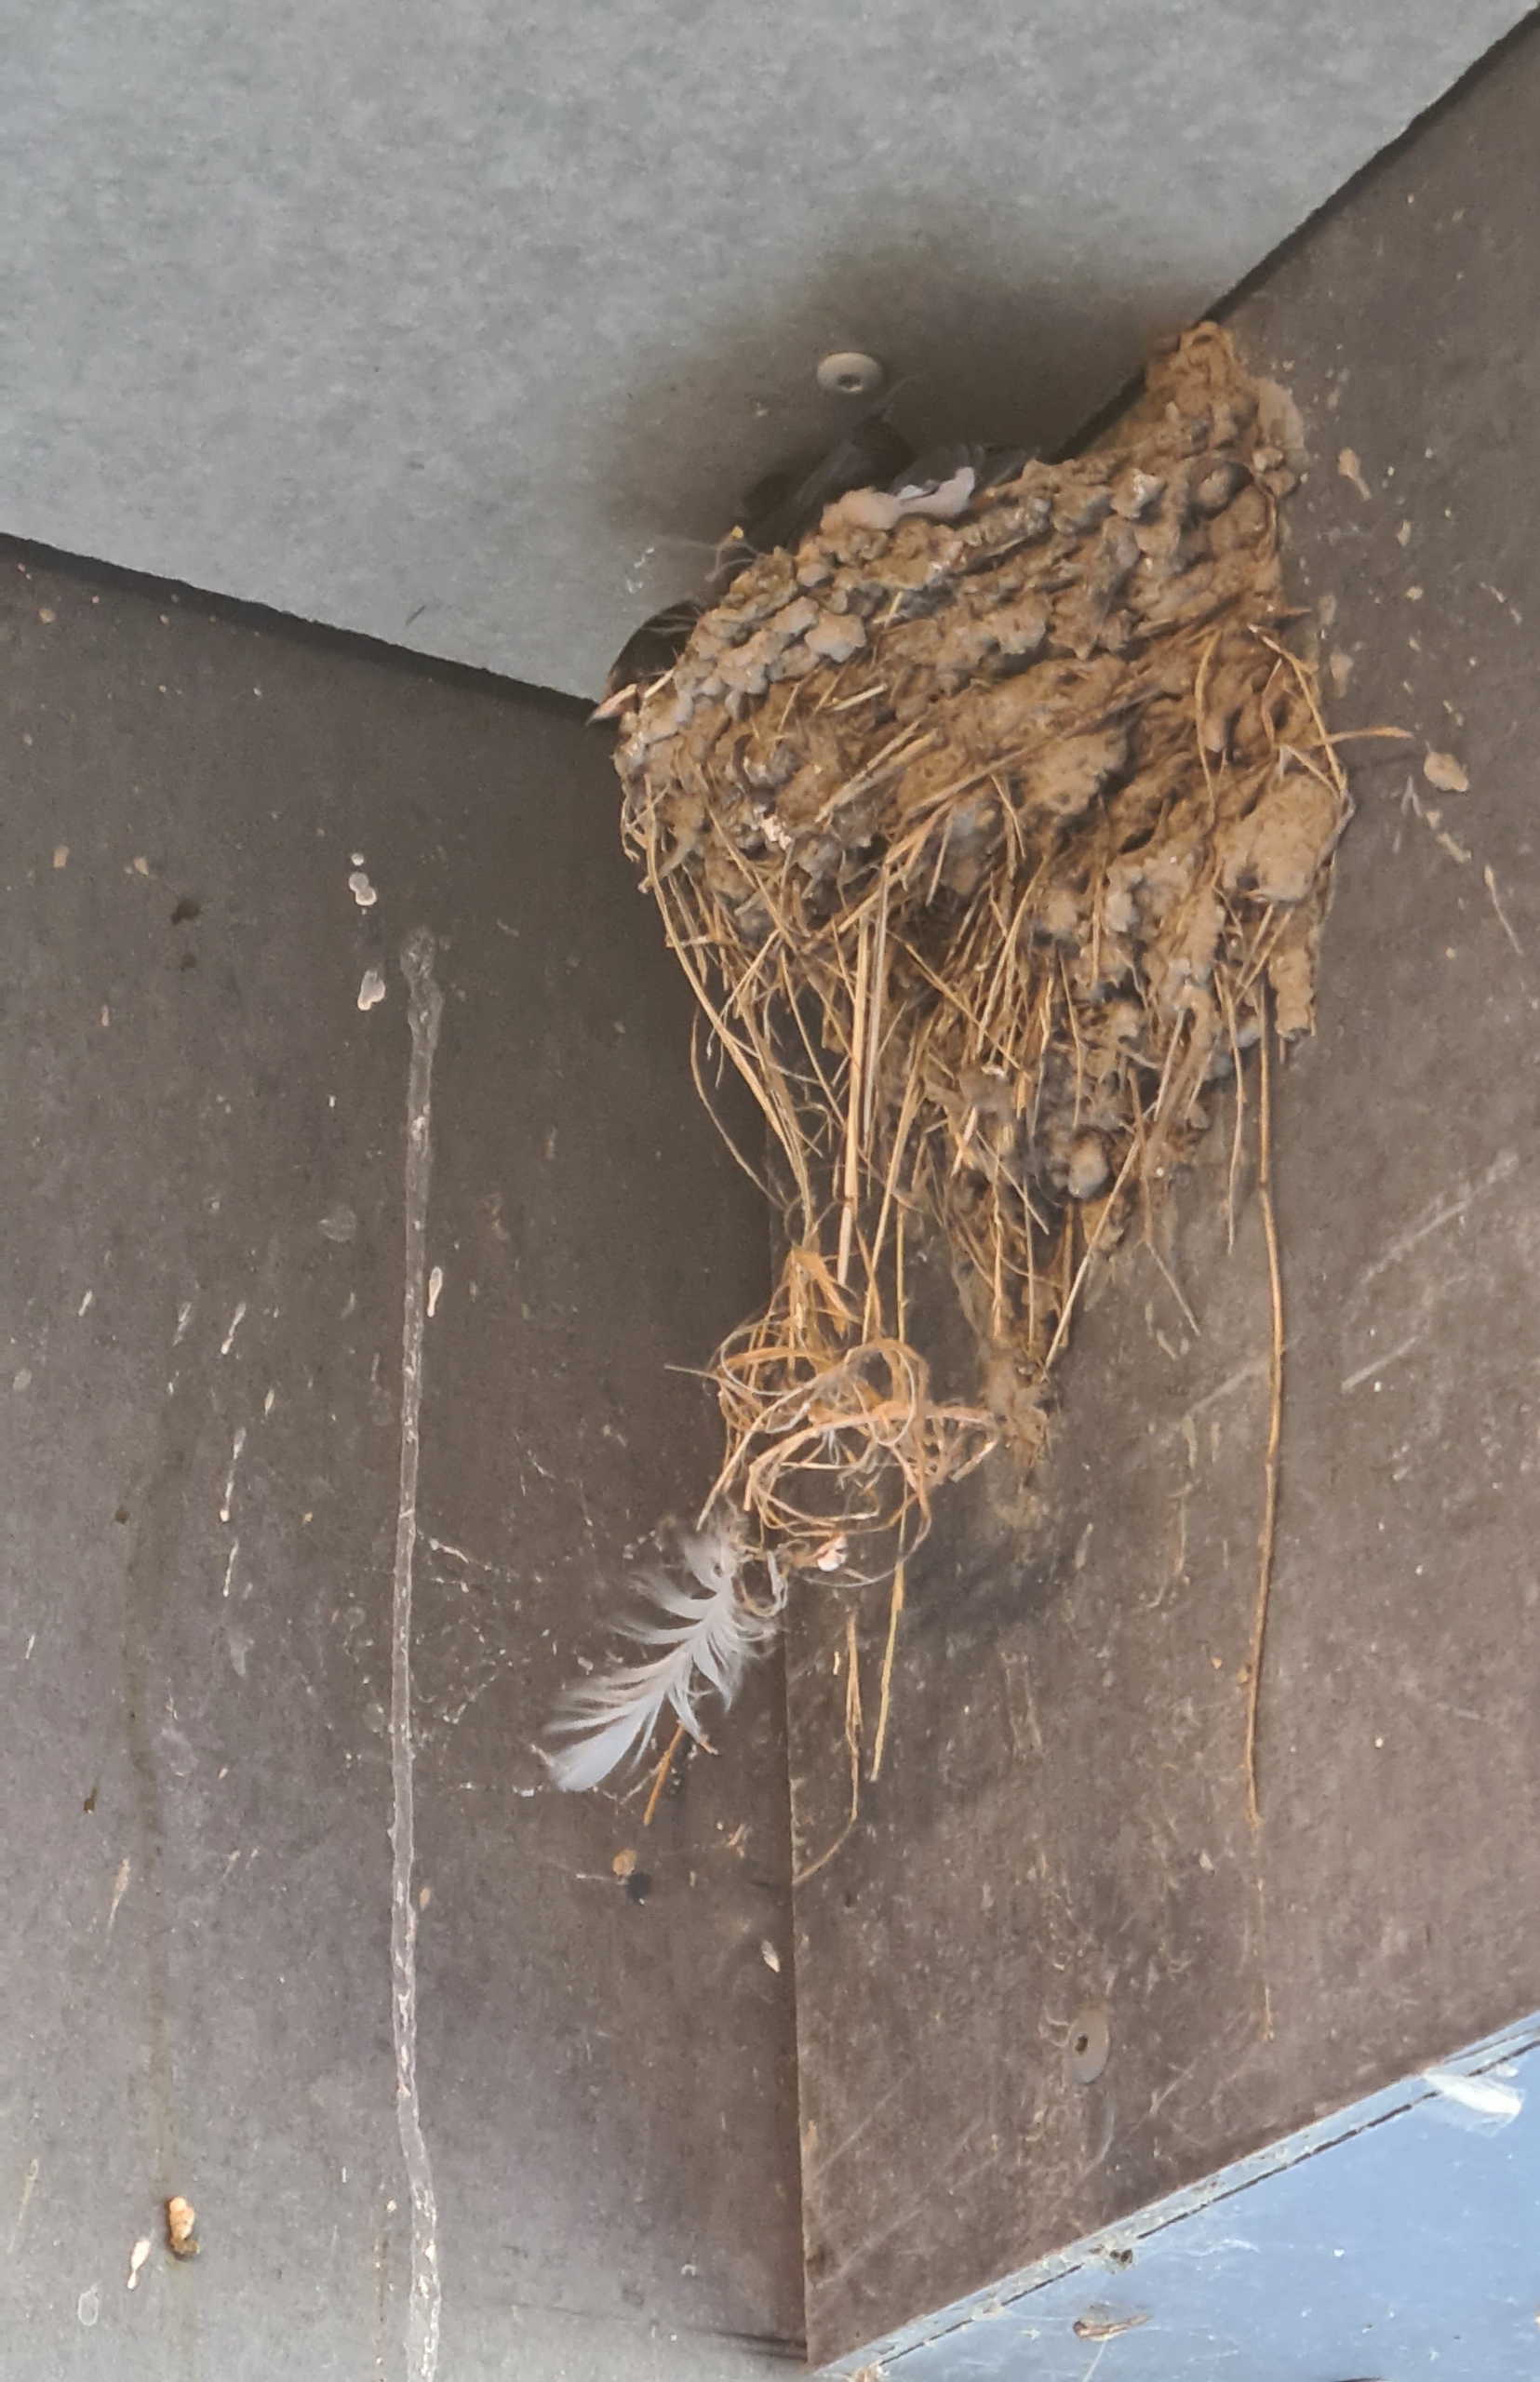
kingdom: Animalia
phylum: Chordata
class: Aves
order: Passeriformes
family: Hirundinidae
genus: Hirundo
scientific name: Hirundo rustica
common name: Landsvale
